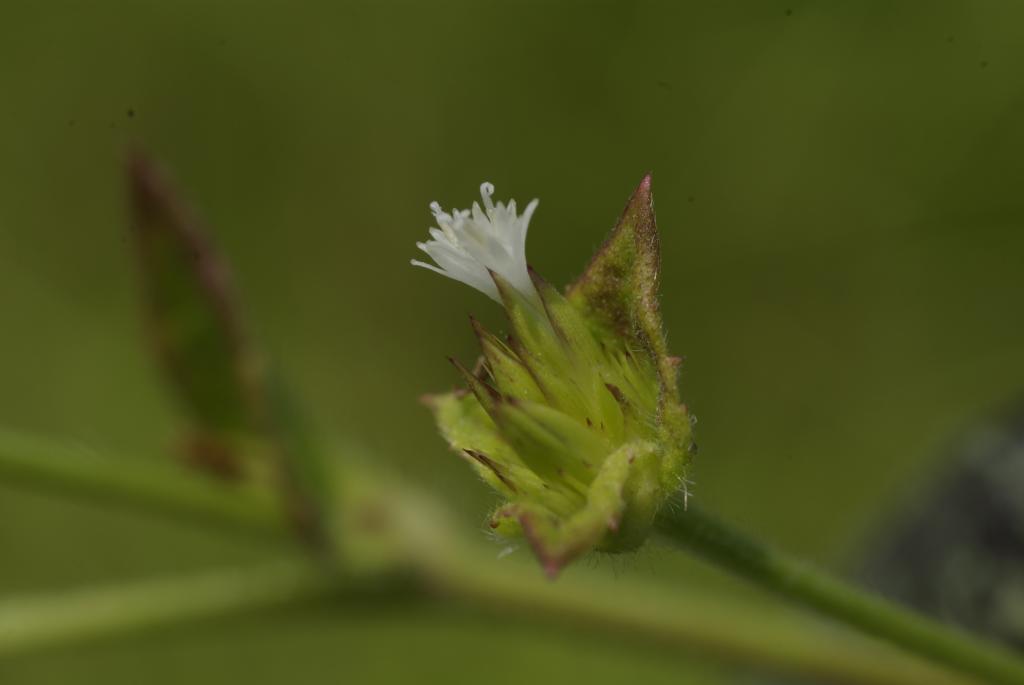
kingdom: Plantae
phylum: Tracheophyta
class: Magnoliopsida
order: Asterales
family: Asteraceae
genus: Elephantopus
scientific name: Elephantopus mollis
